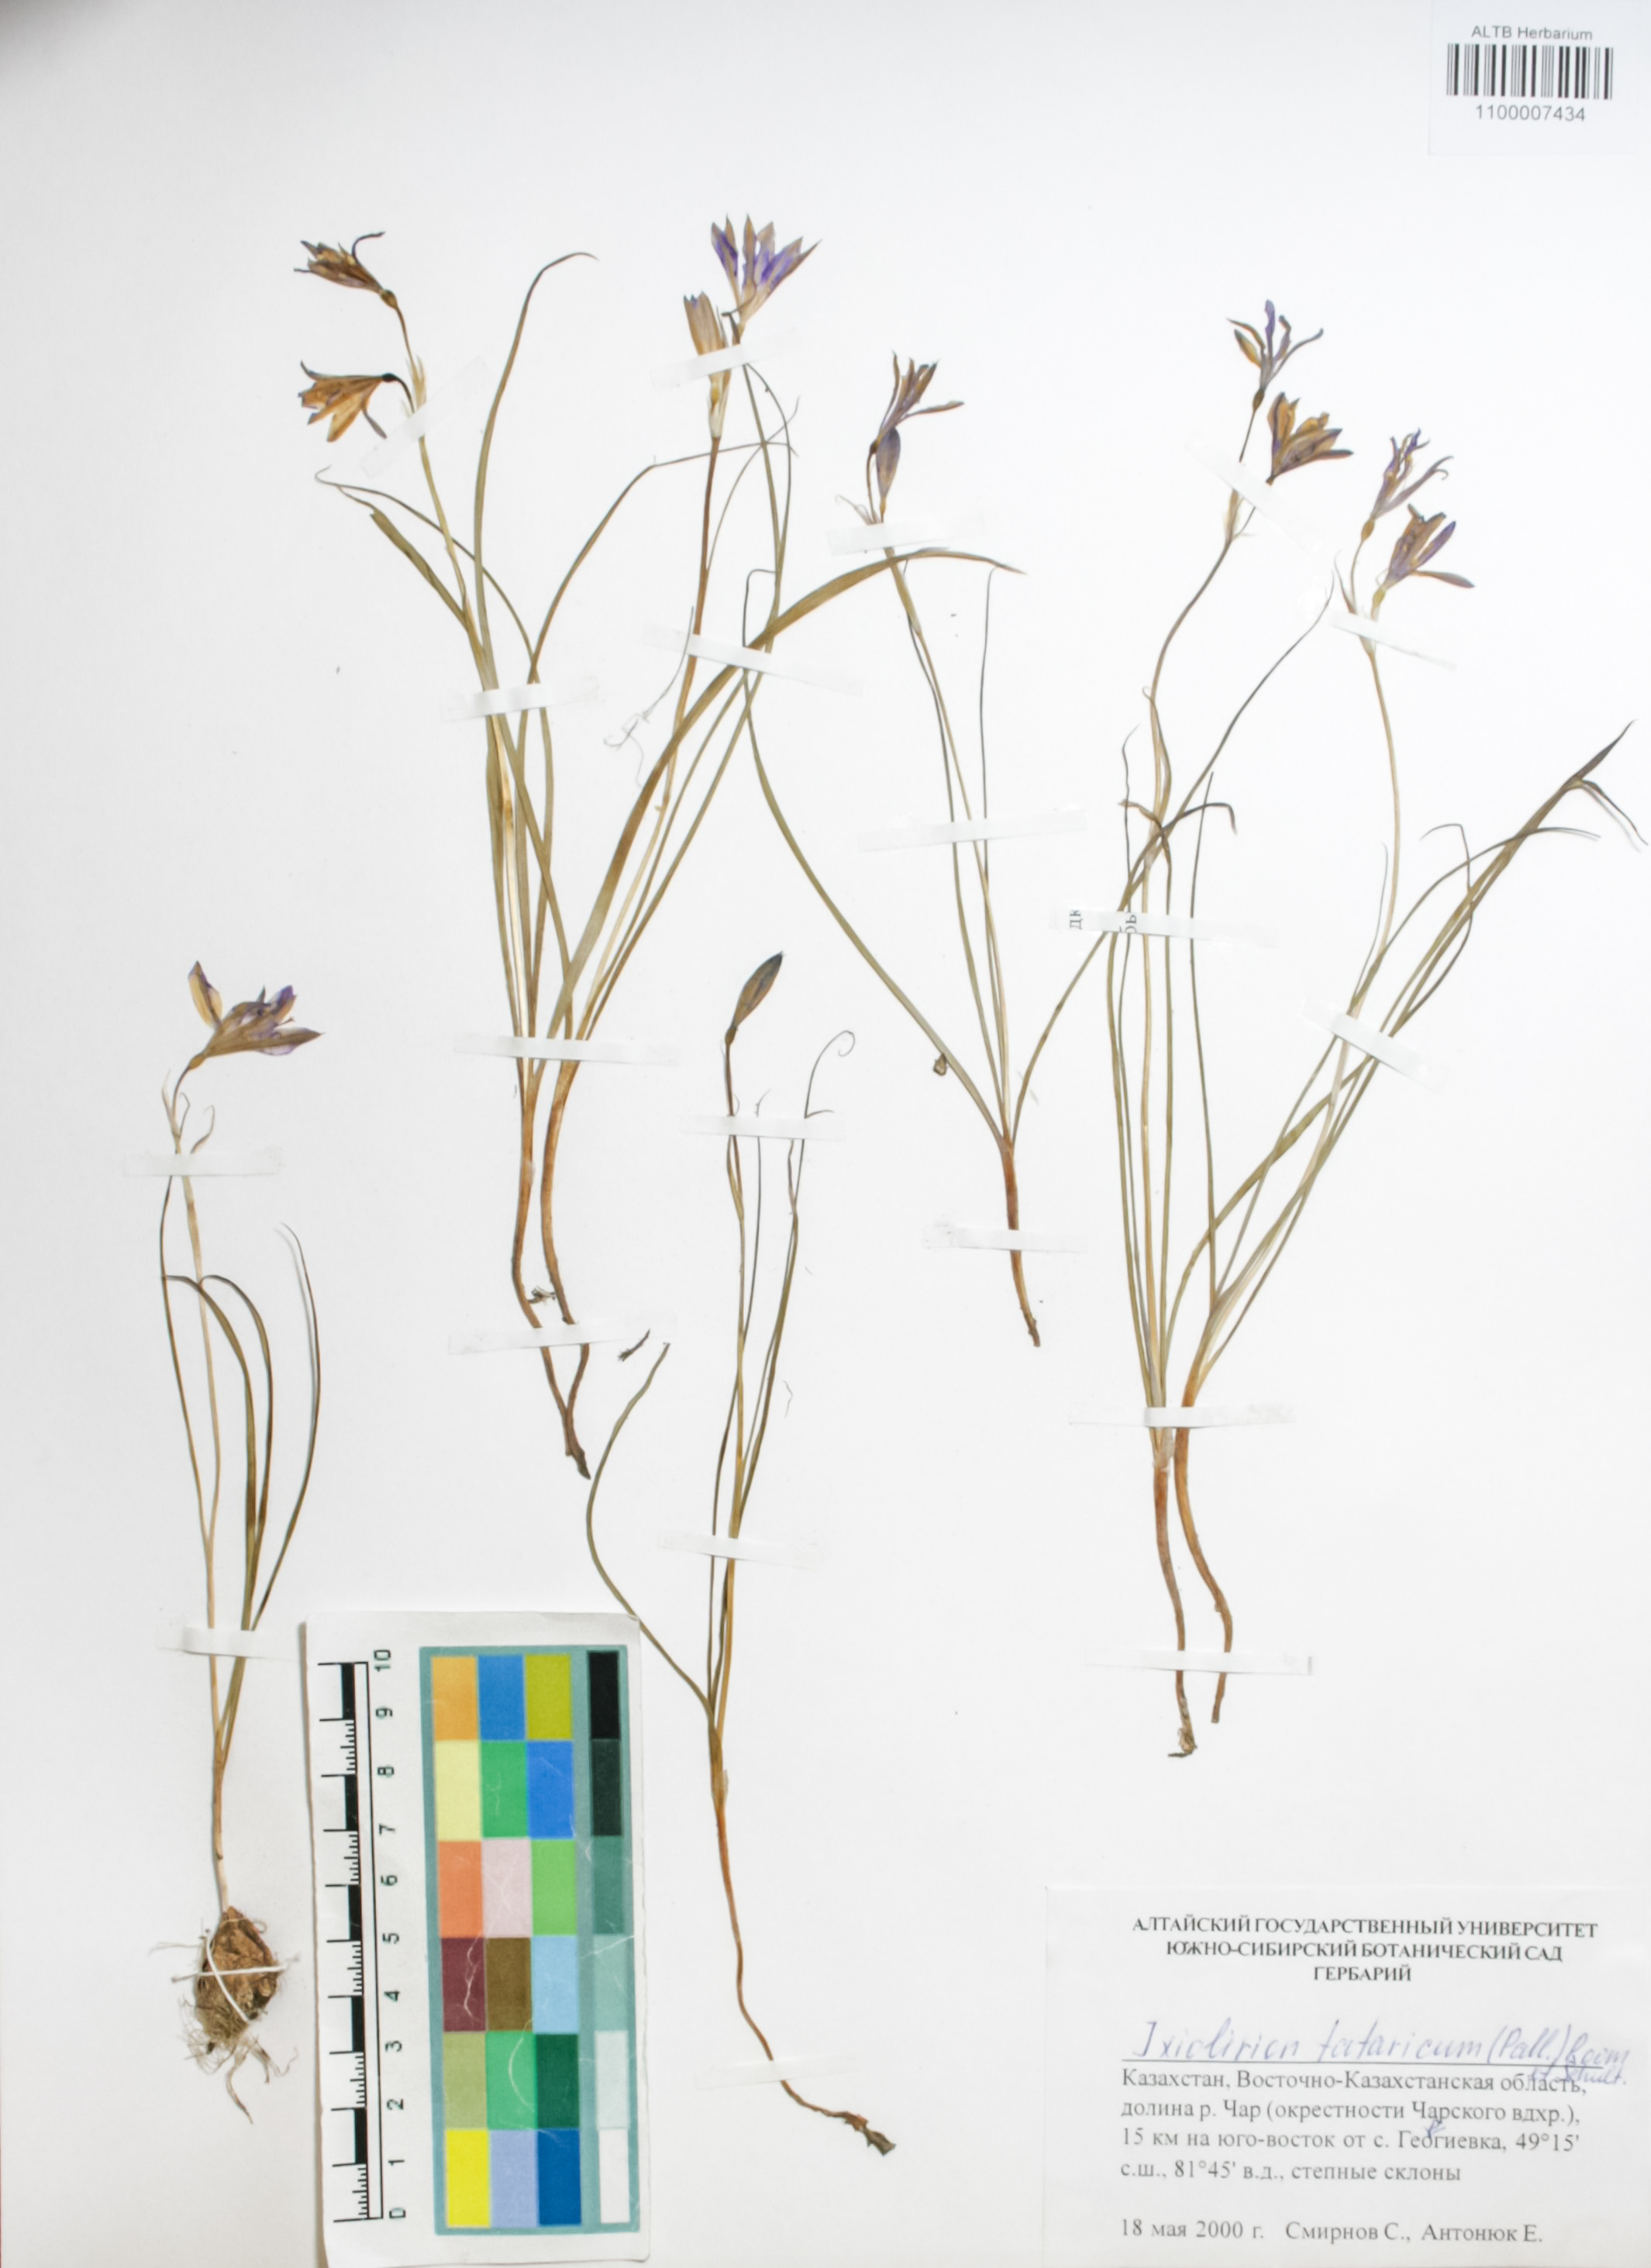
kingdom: Plantae
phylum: Tracheophyta
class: Liliopsida
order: Asparagales
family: Ixioliriaceae
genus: Ixiolirion
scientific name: Ixiolirion tataricum
